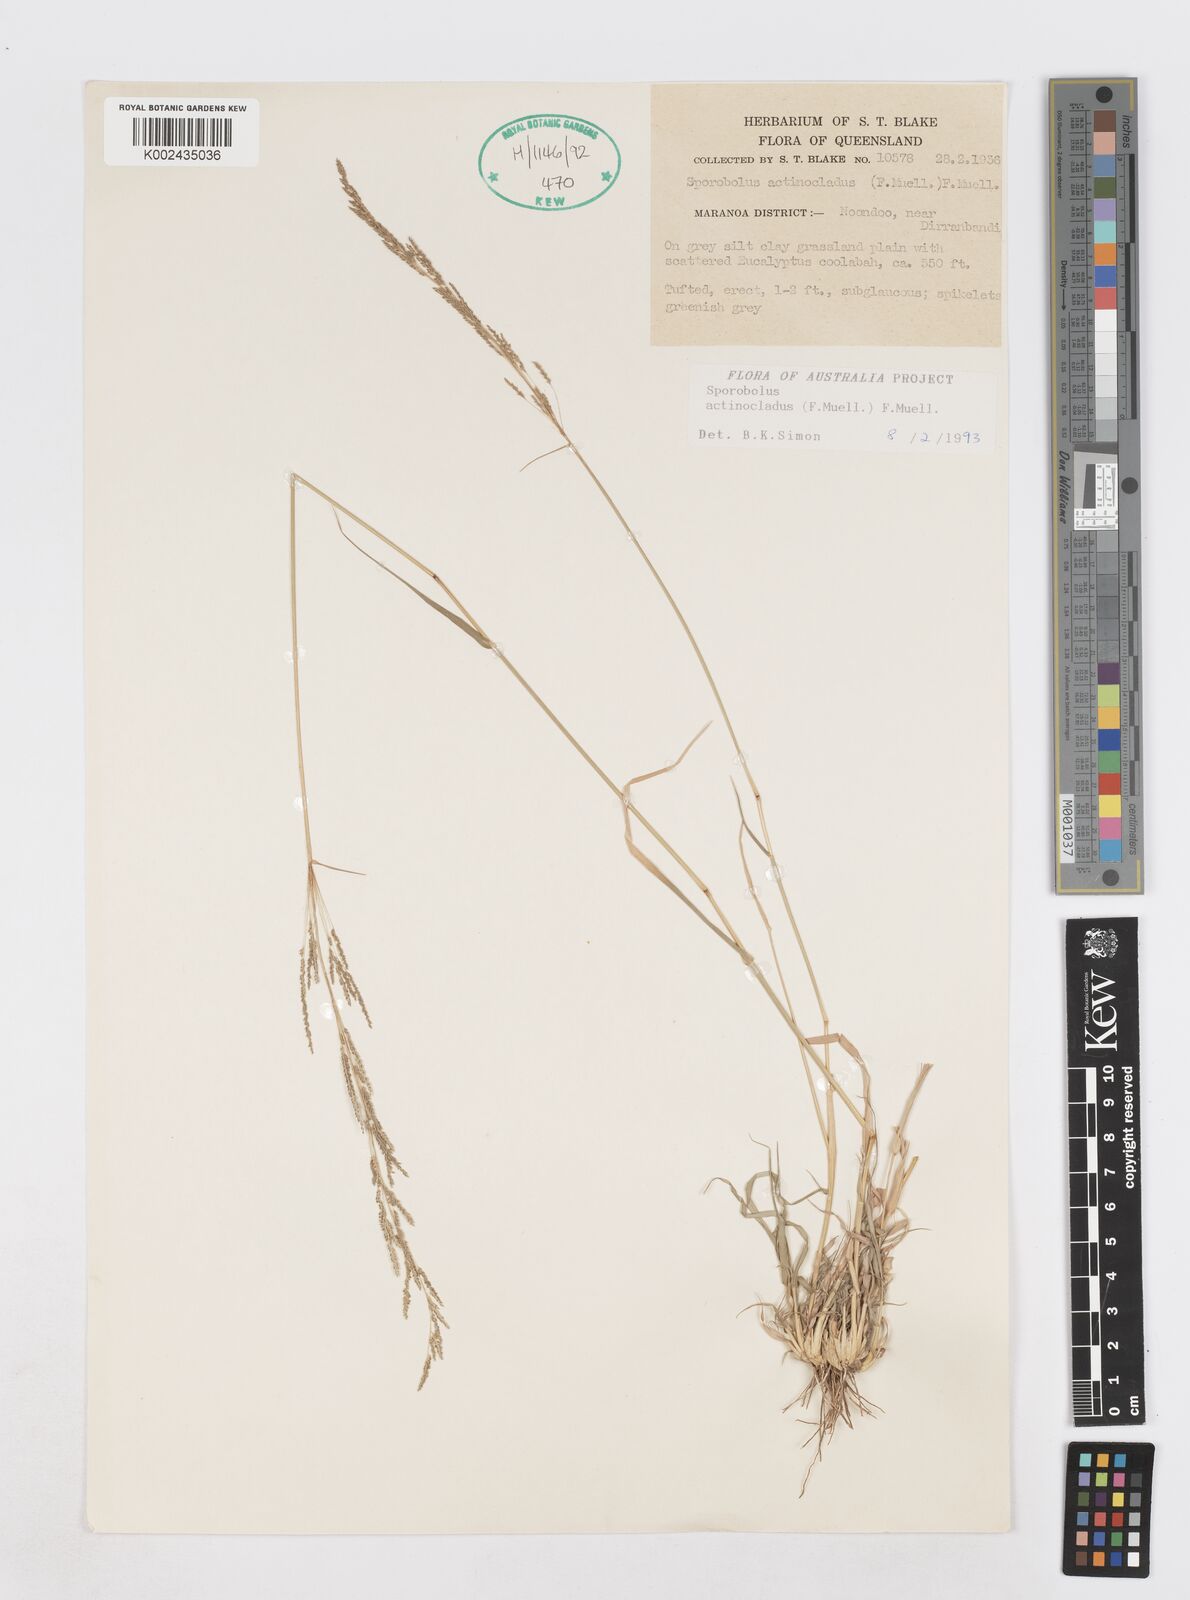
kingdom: Plantae
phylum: Tracheophyta
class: Liliopsida
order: Poales
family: Poaceae
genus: Sporobolus
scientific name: Sporobolus actinocladus
